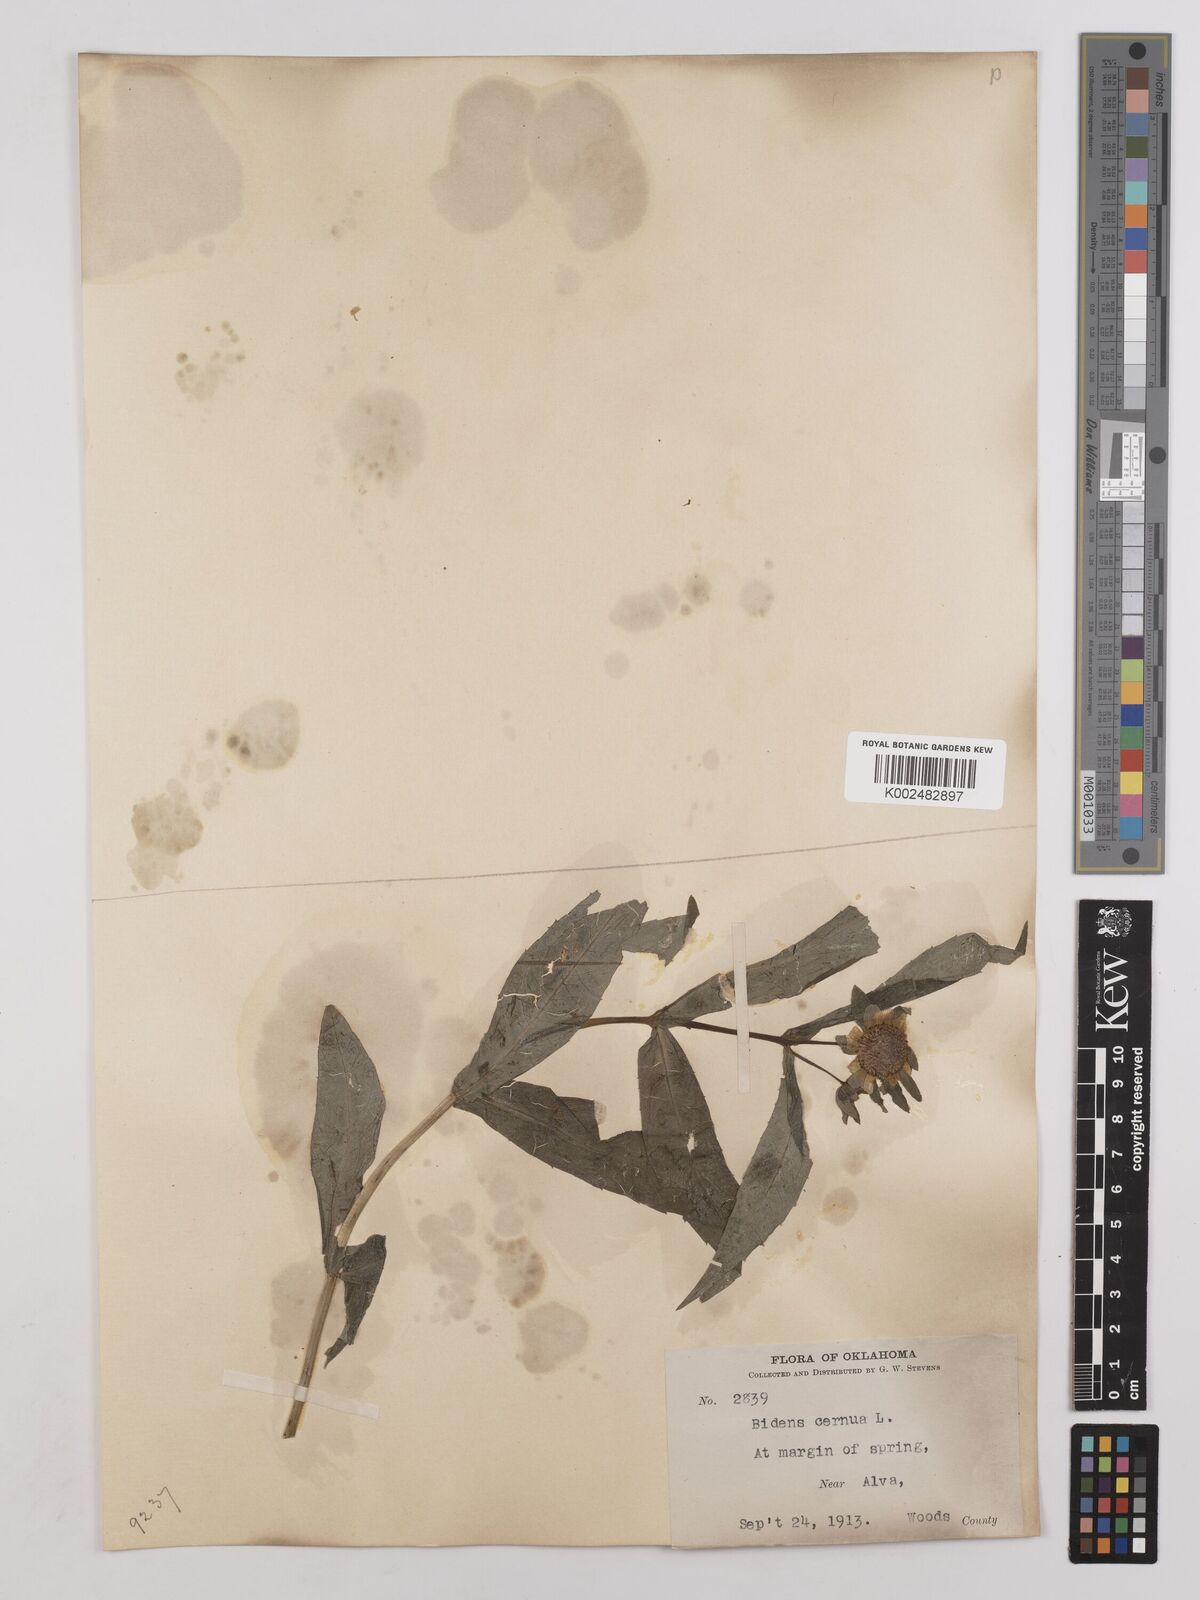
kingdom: Plantae
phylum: Tracheophyta
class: Magnoliopsida
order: Asterales
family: Asteraceae
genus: Bidens
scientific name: Bidens cernua
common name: Nodding bur-marigold
